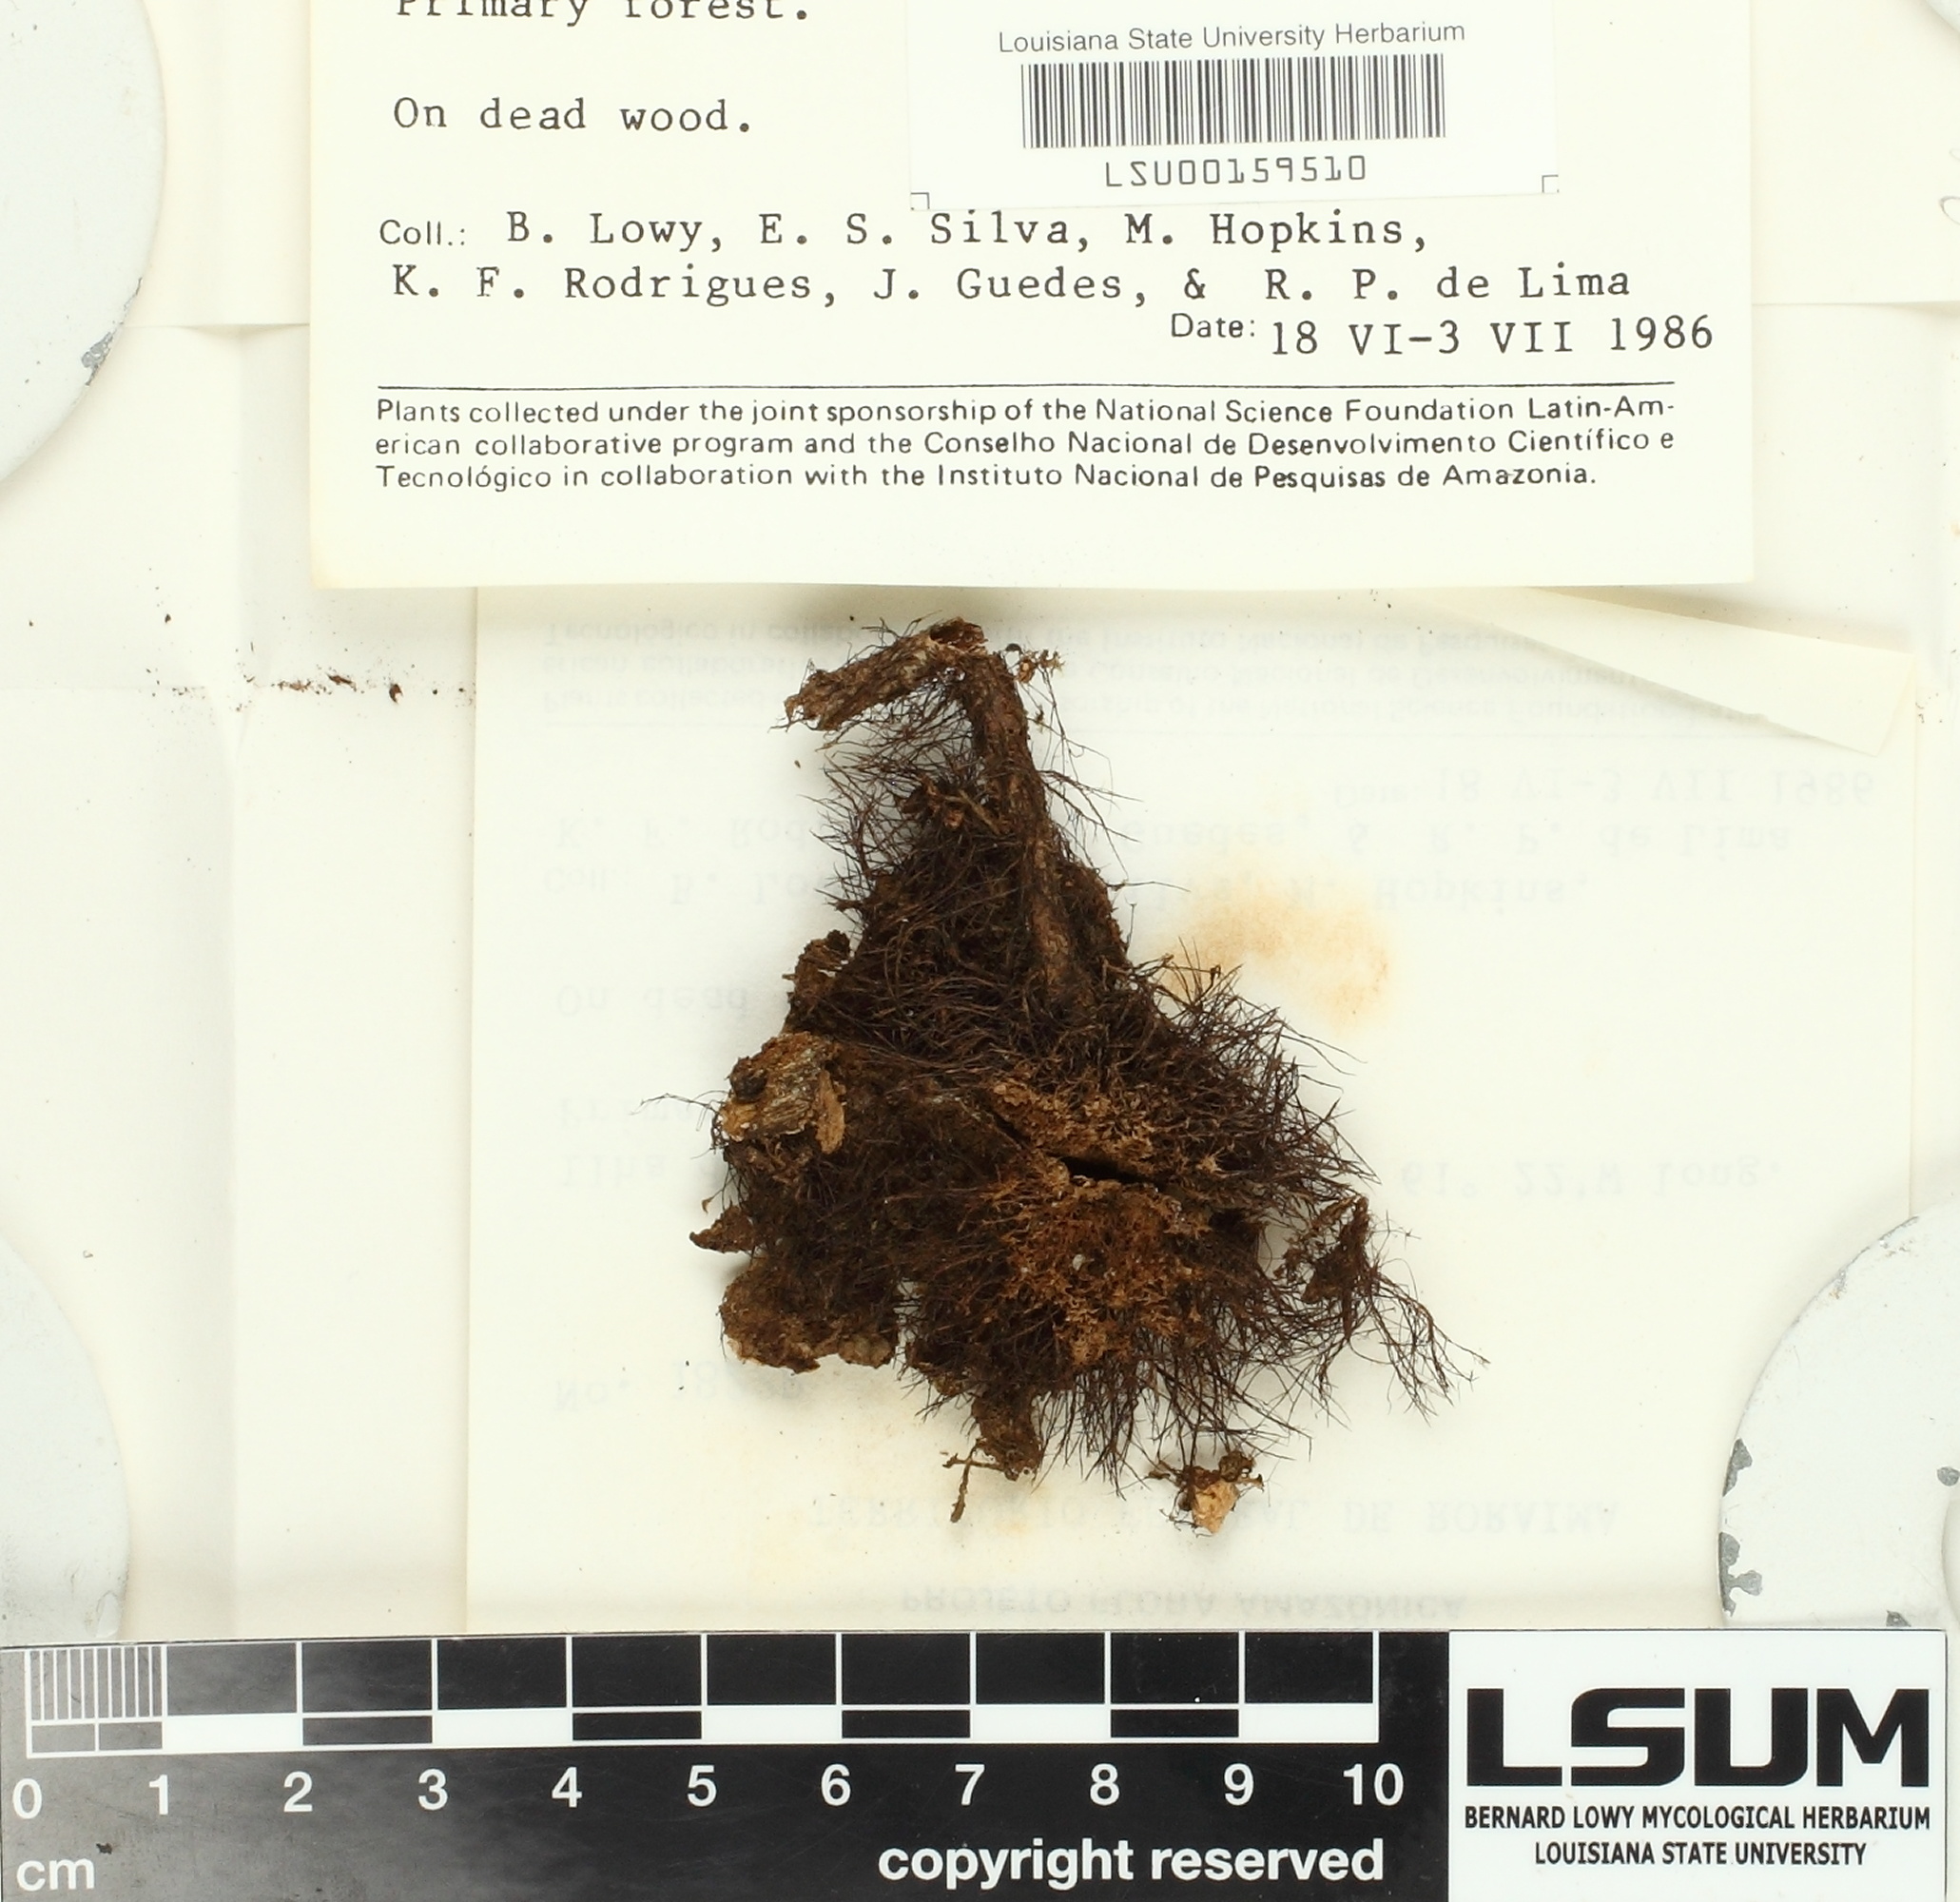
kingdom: Fungi
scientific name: Fungi
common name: Fungi
